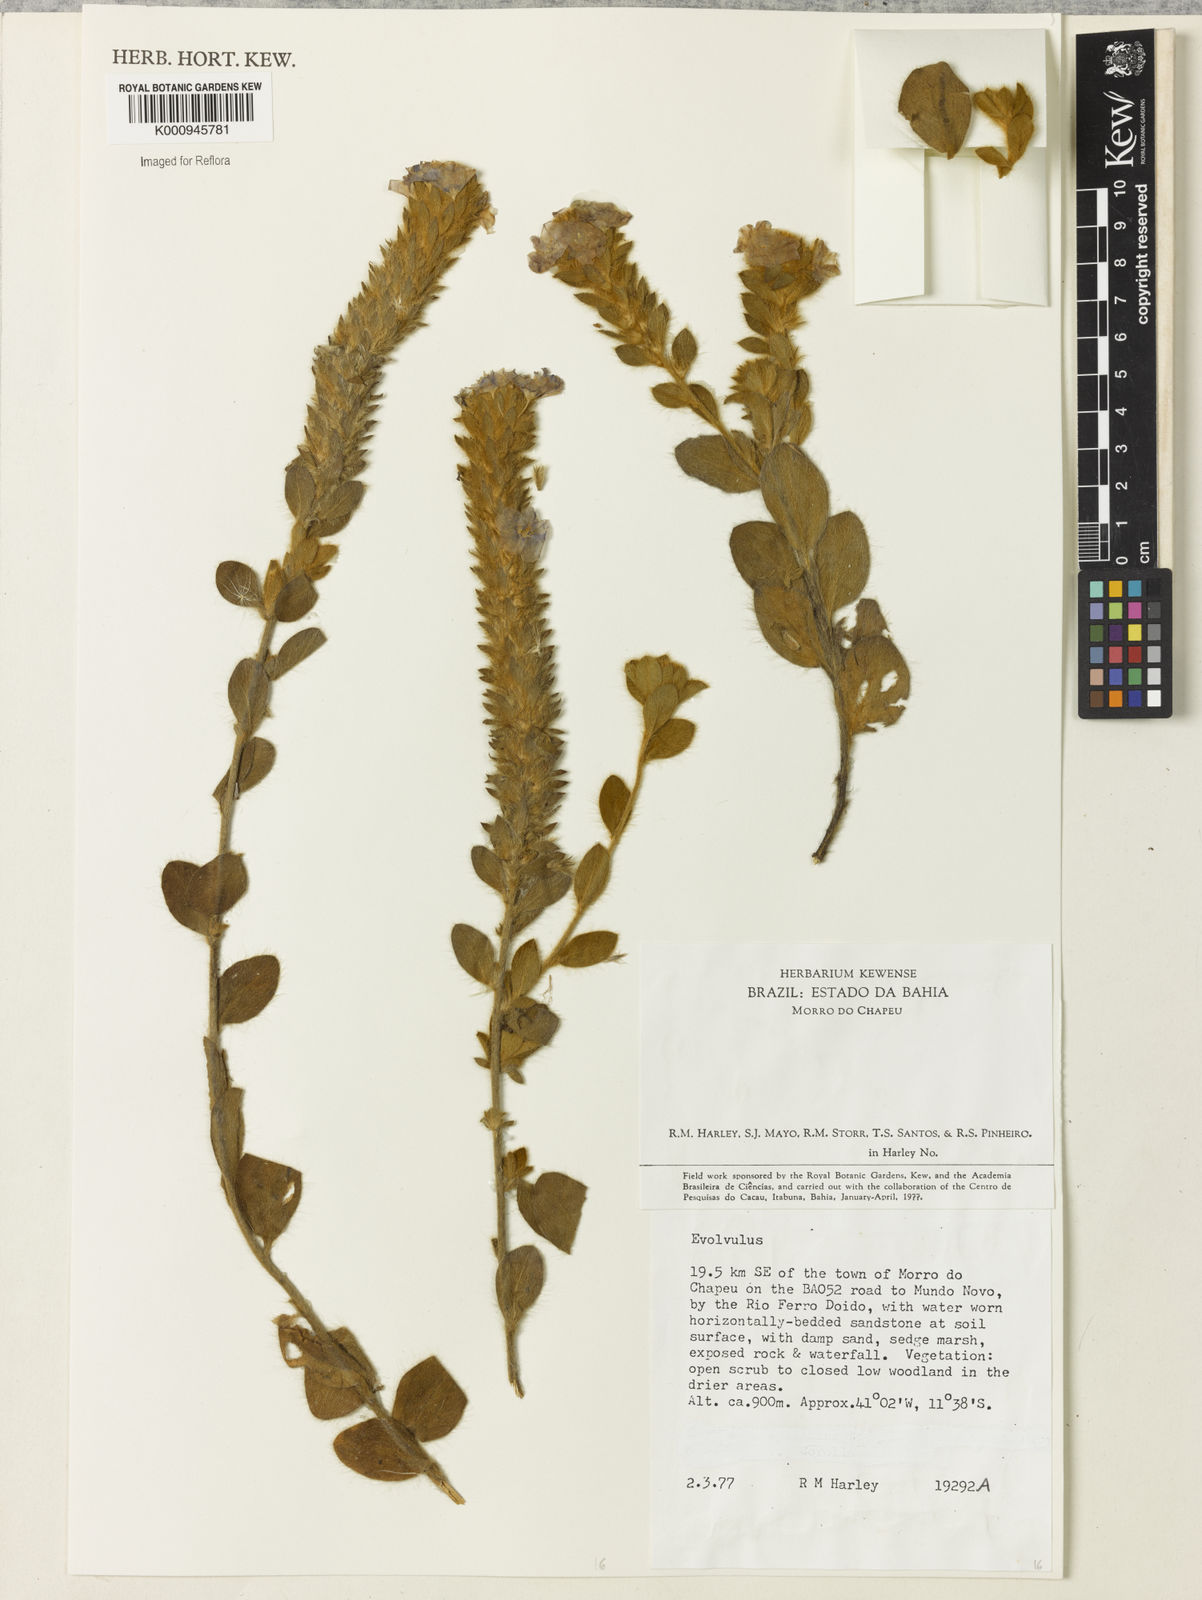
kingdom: Plantae
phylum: Tracheophyta
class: Magnoliopsida
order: Solanales
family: Convolvulaceae
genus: Evolvulus
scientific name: Evolvulus
